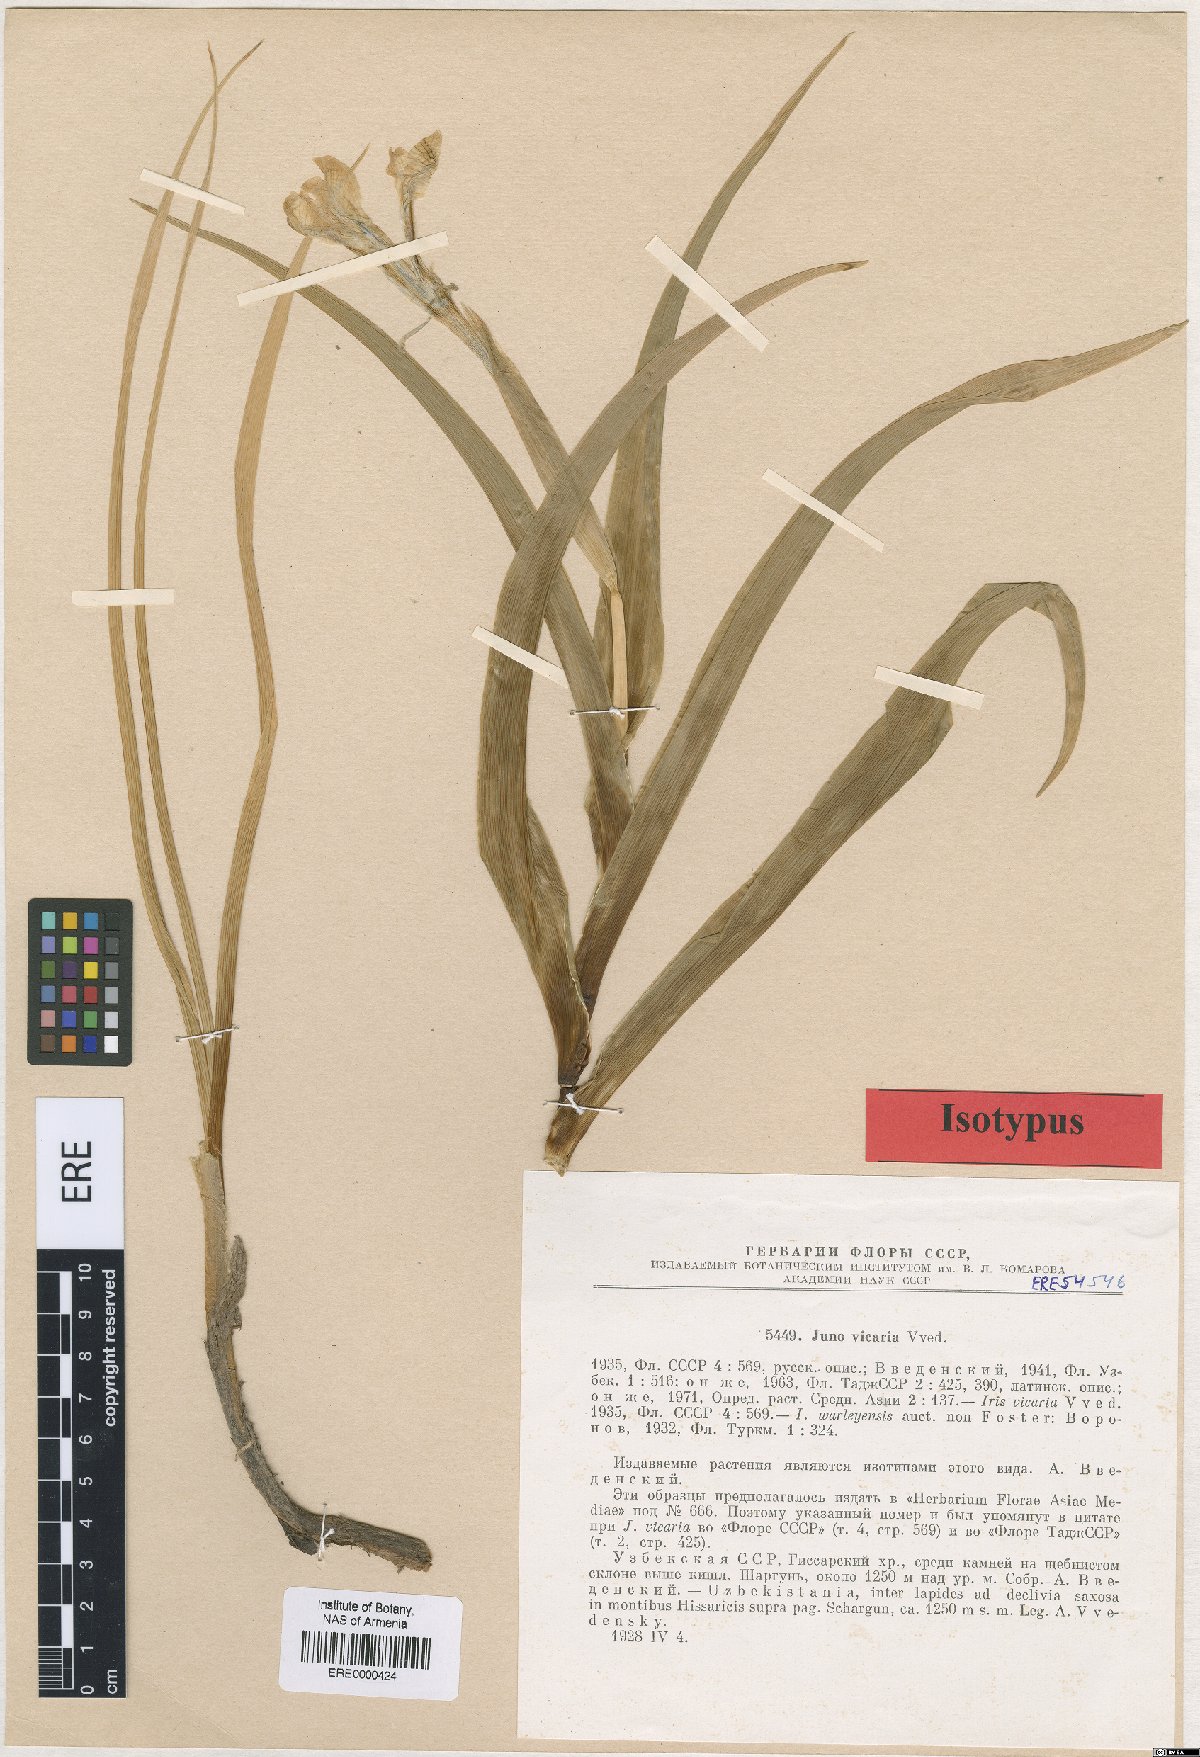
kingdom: Plantae
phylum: Tracheophyta
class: Liliopsida
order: Asparagales
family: Iridaceae
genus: Iris
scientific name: Iris vicaria
